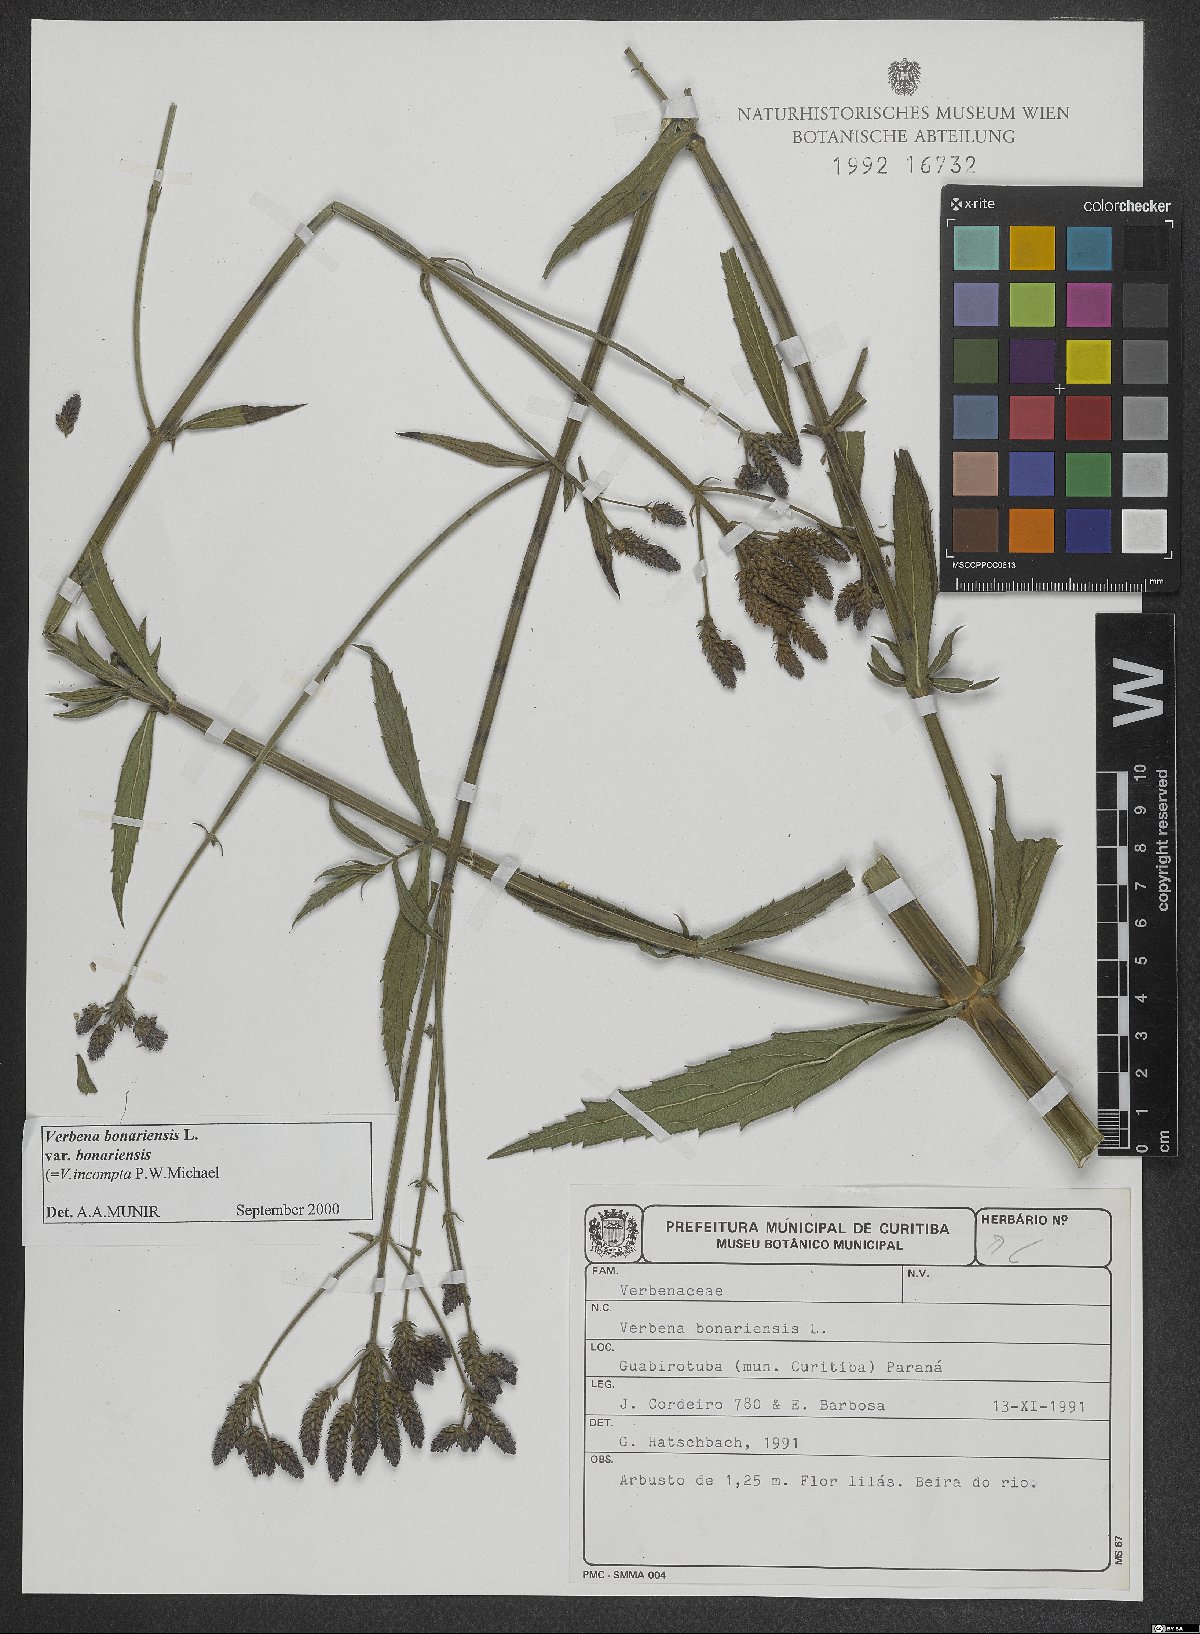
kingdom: Plantae
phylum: Tracheophyta
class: Magnoliopsida
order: Lamiales
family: Verbenaceae
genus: Verbena
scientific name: Verbena bonariensis
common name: Purpletop vervain
